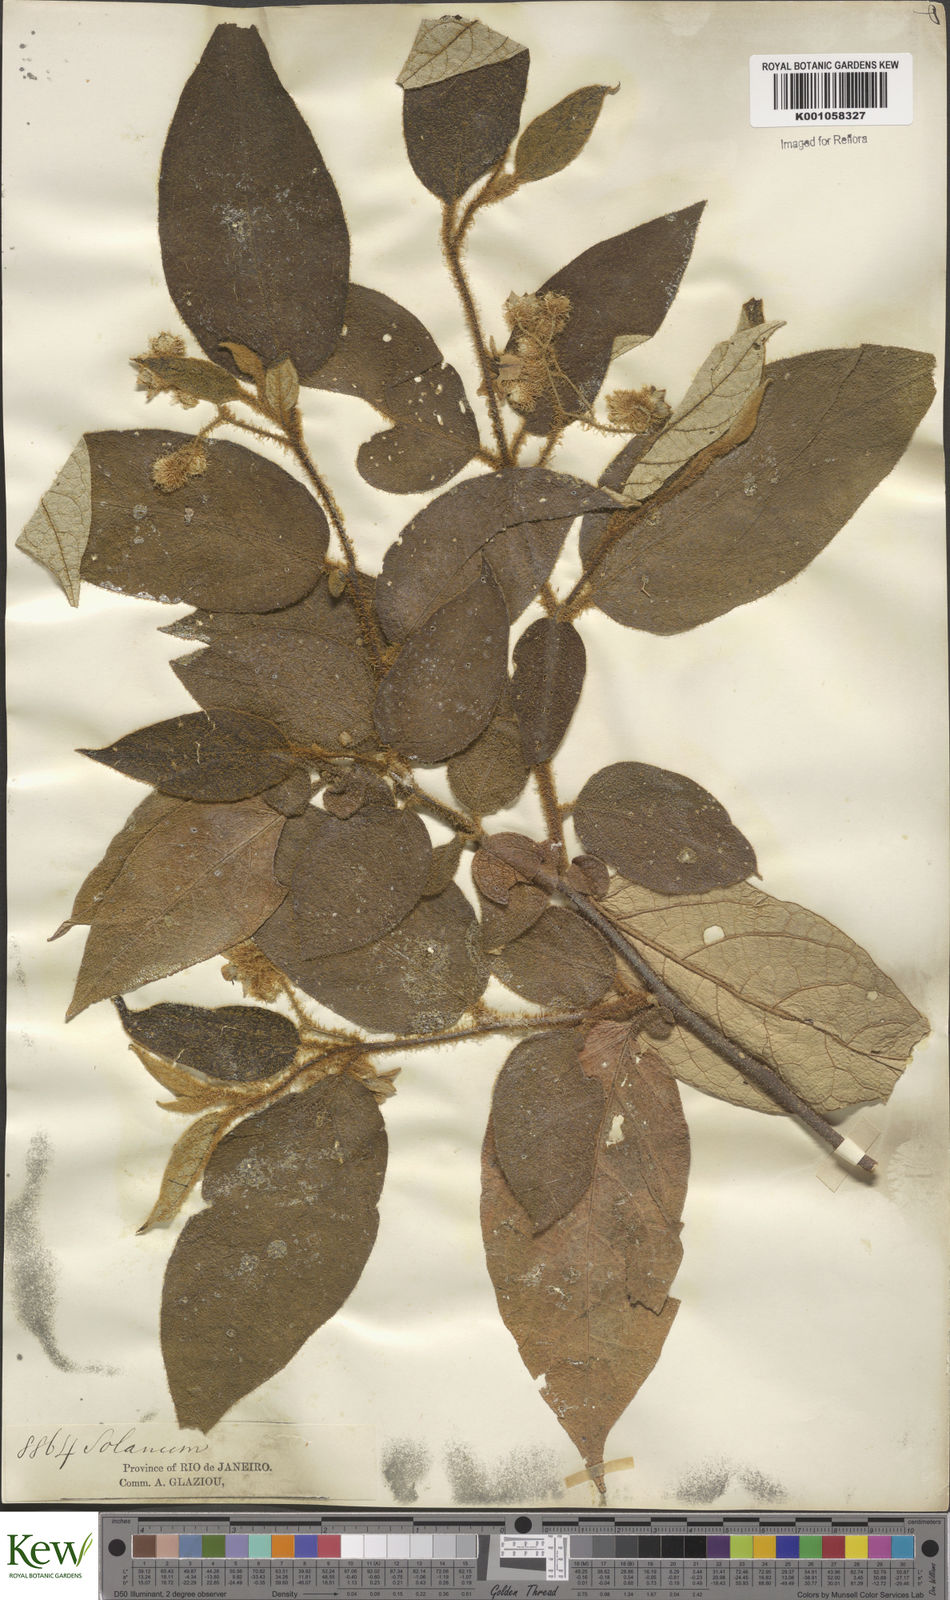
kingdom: Plantae
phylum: Tracheophyta
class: Magnoliopsida
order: Solanales
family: Solanaceae
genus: Solanum
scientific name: Solanum
